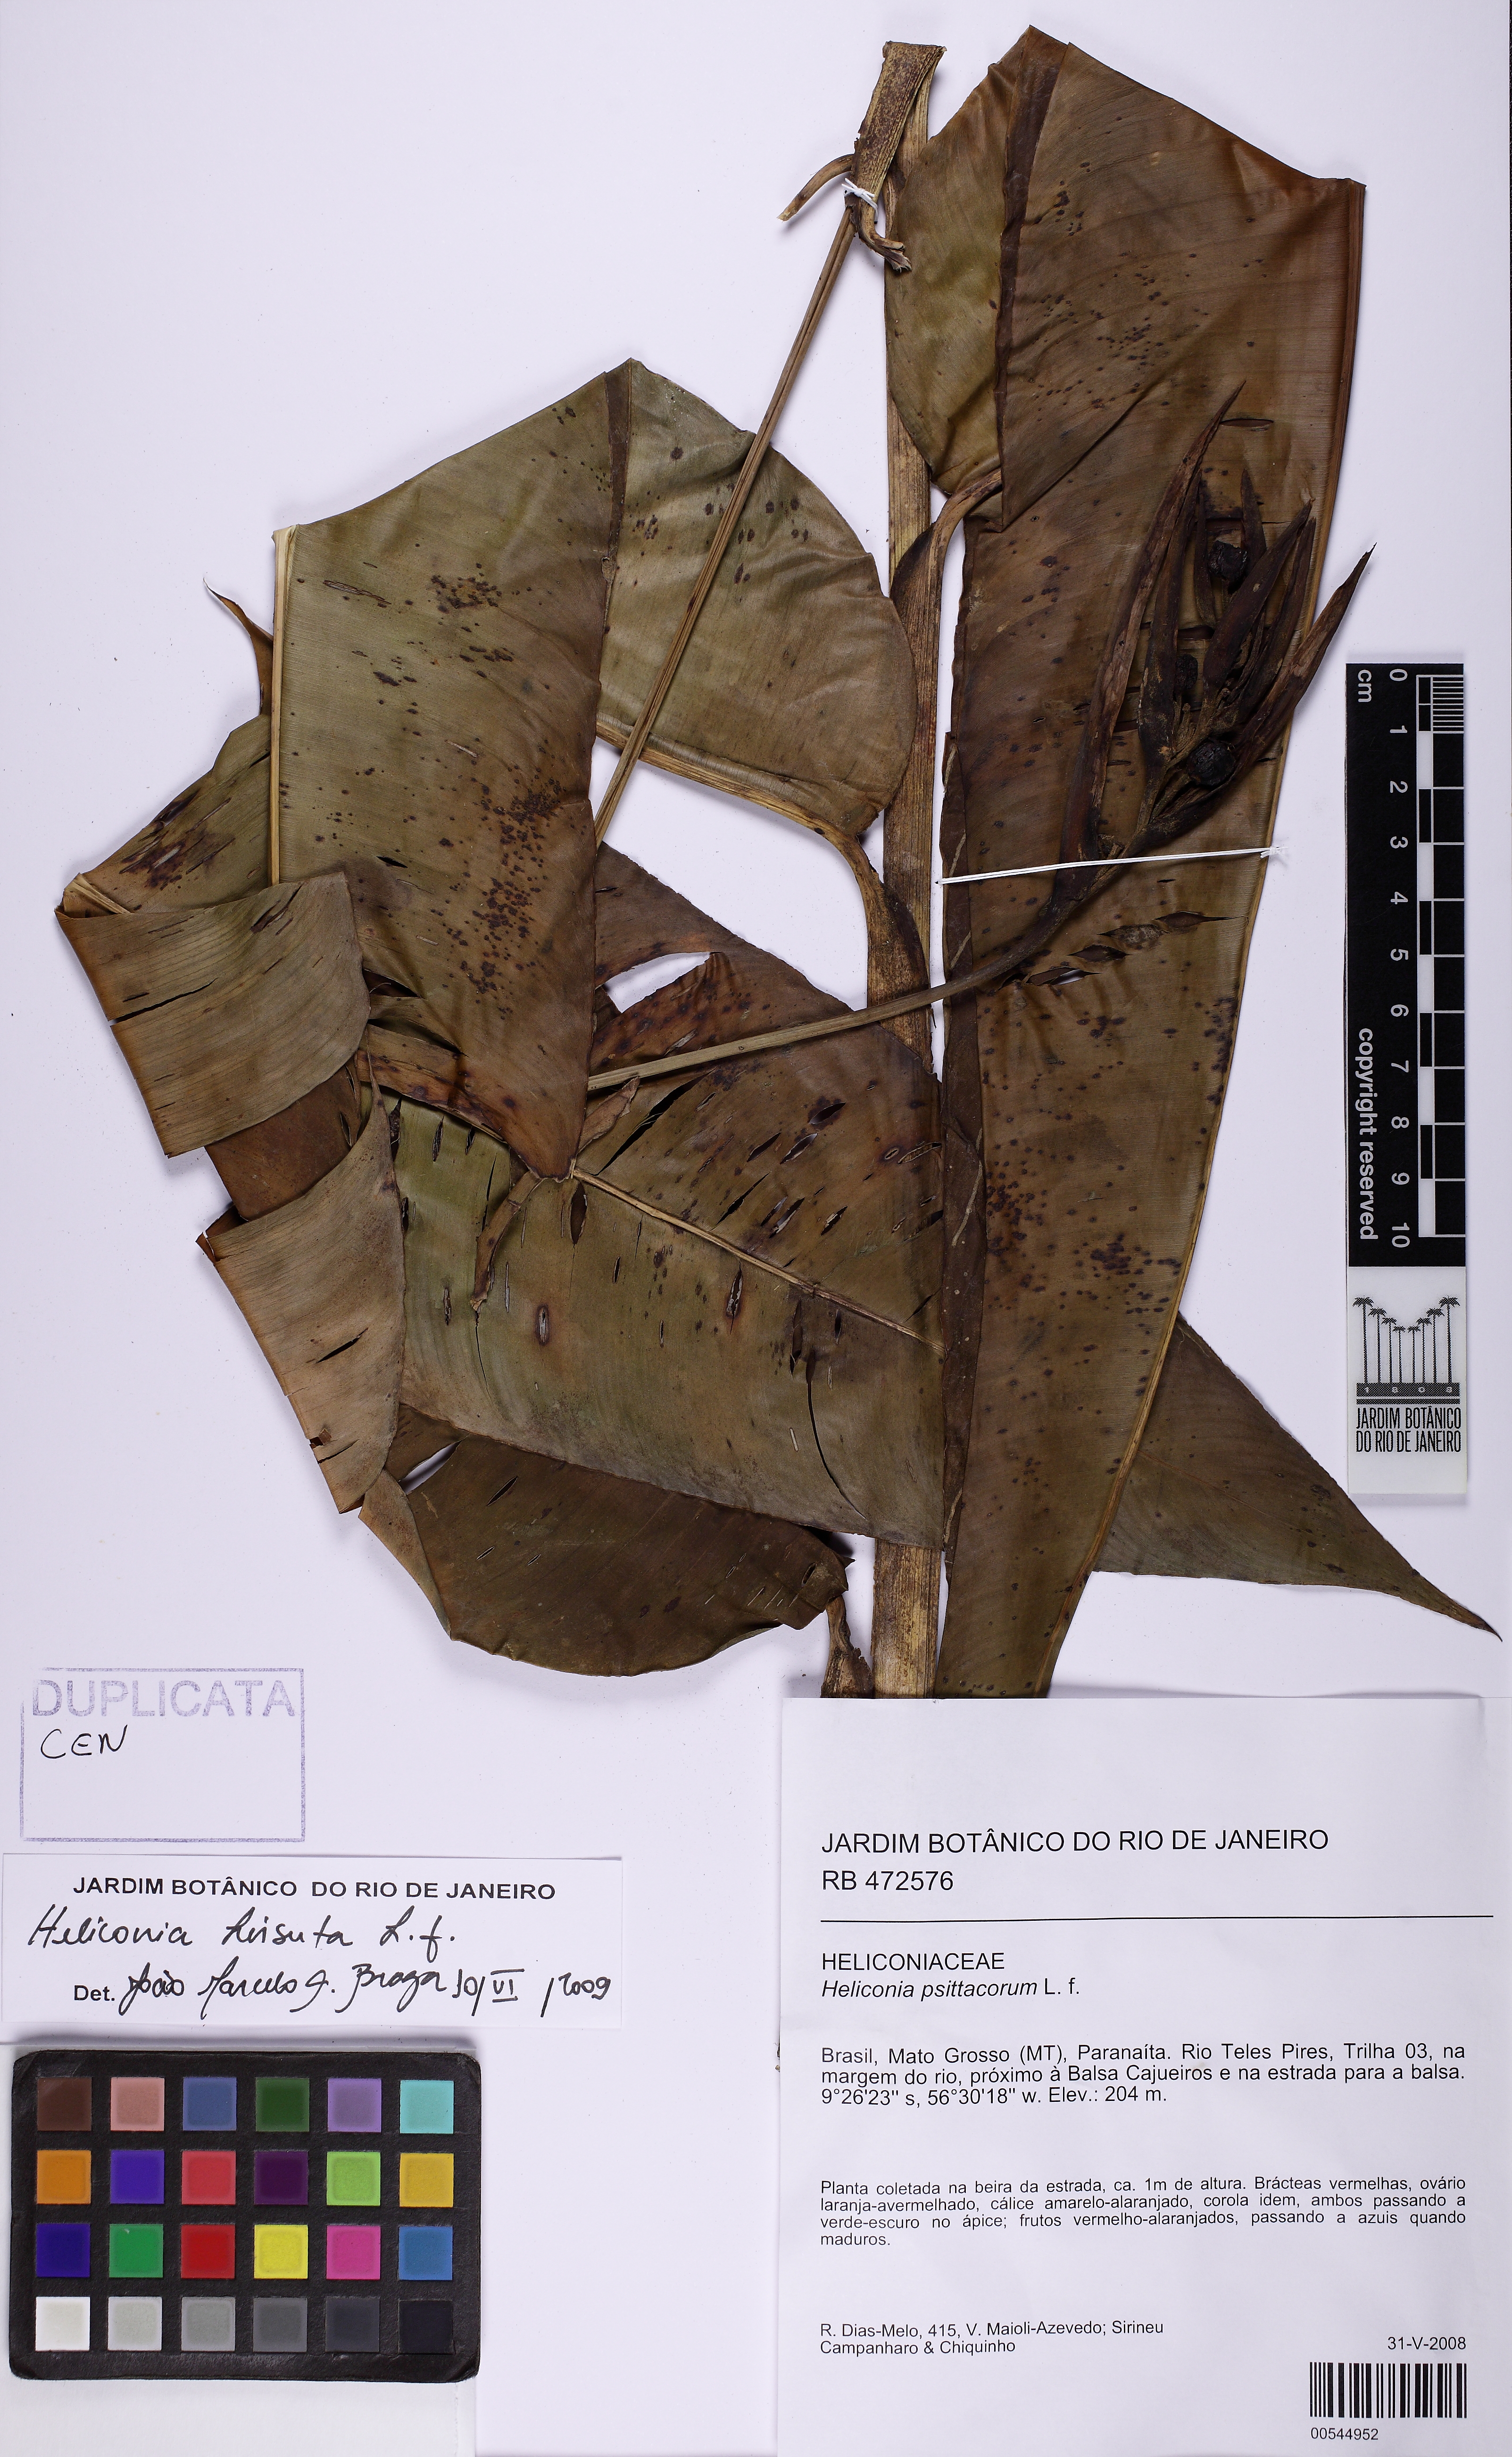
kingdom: Plantae
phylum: Tracheophyta
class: Liliopsida
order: Zingiberales
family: Heliconiaceae
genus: Heliconia
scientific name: Heliconia hirsuta
